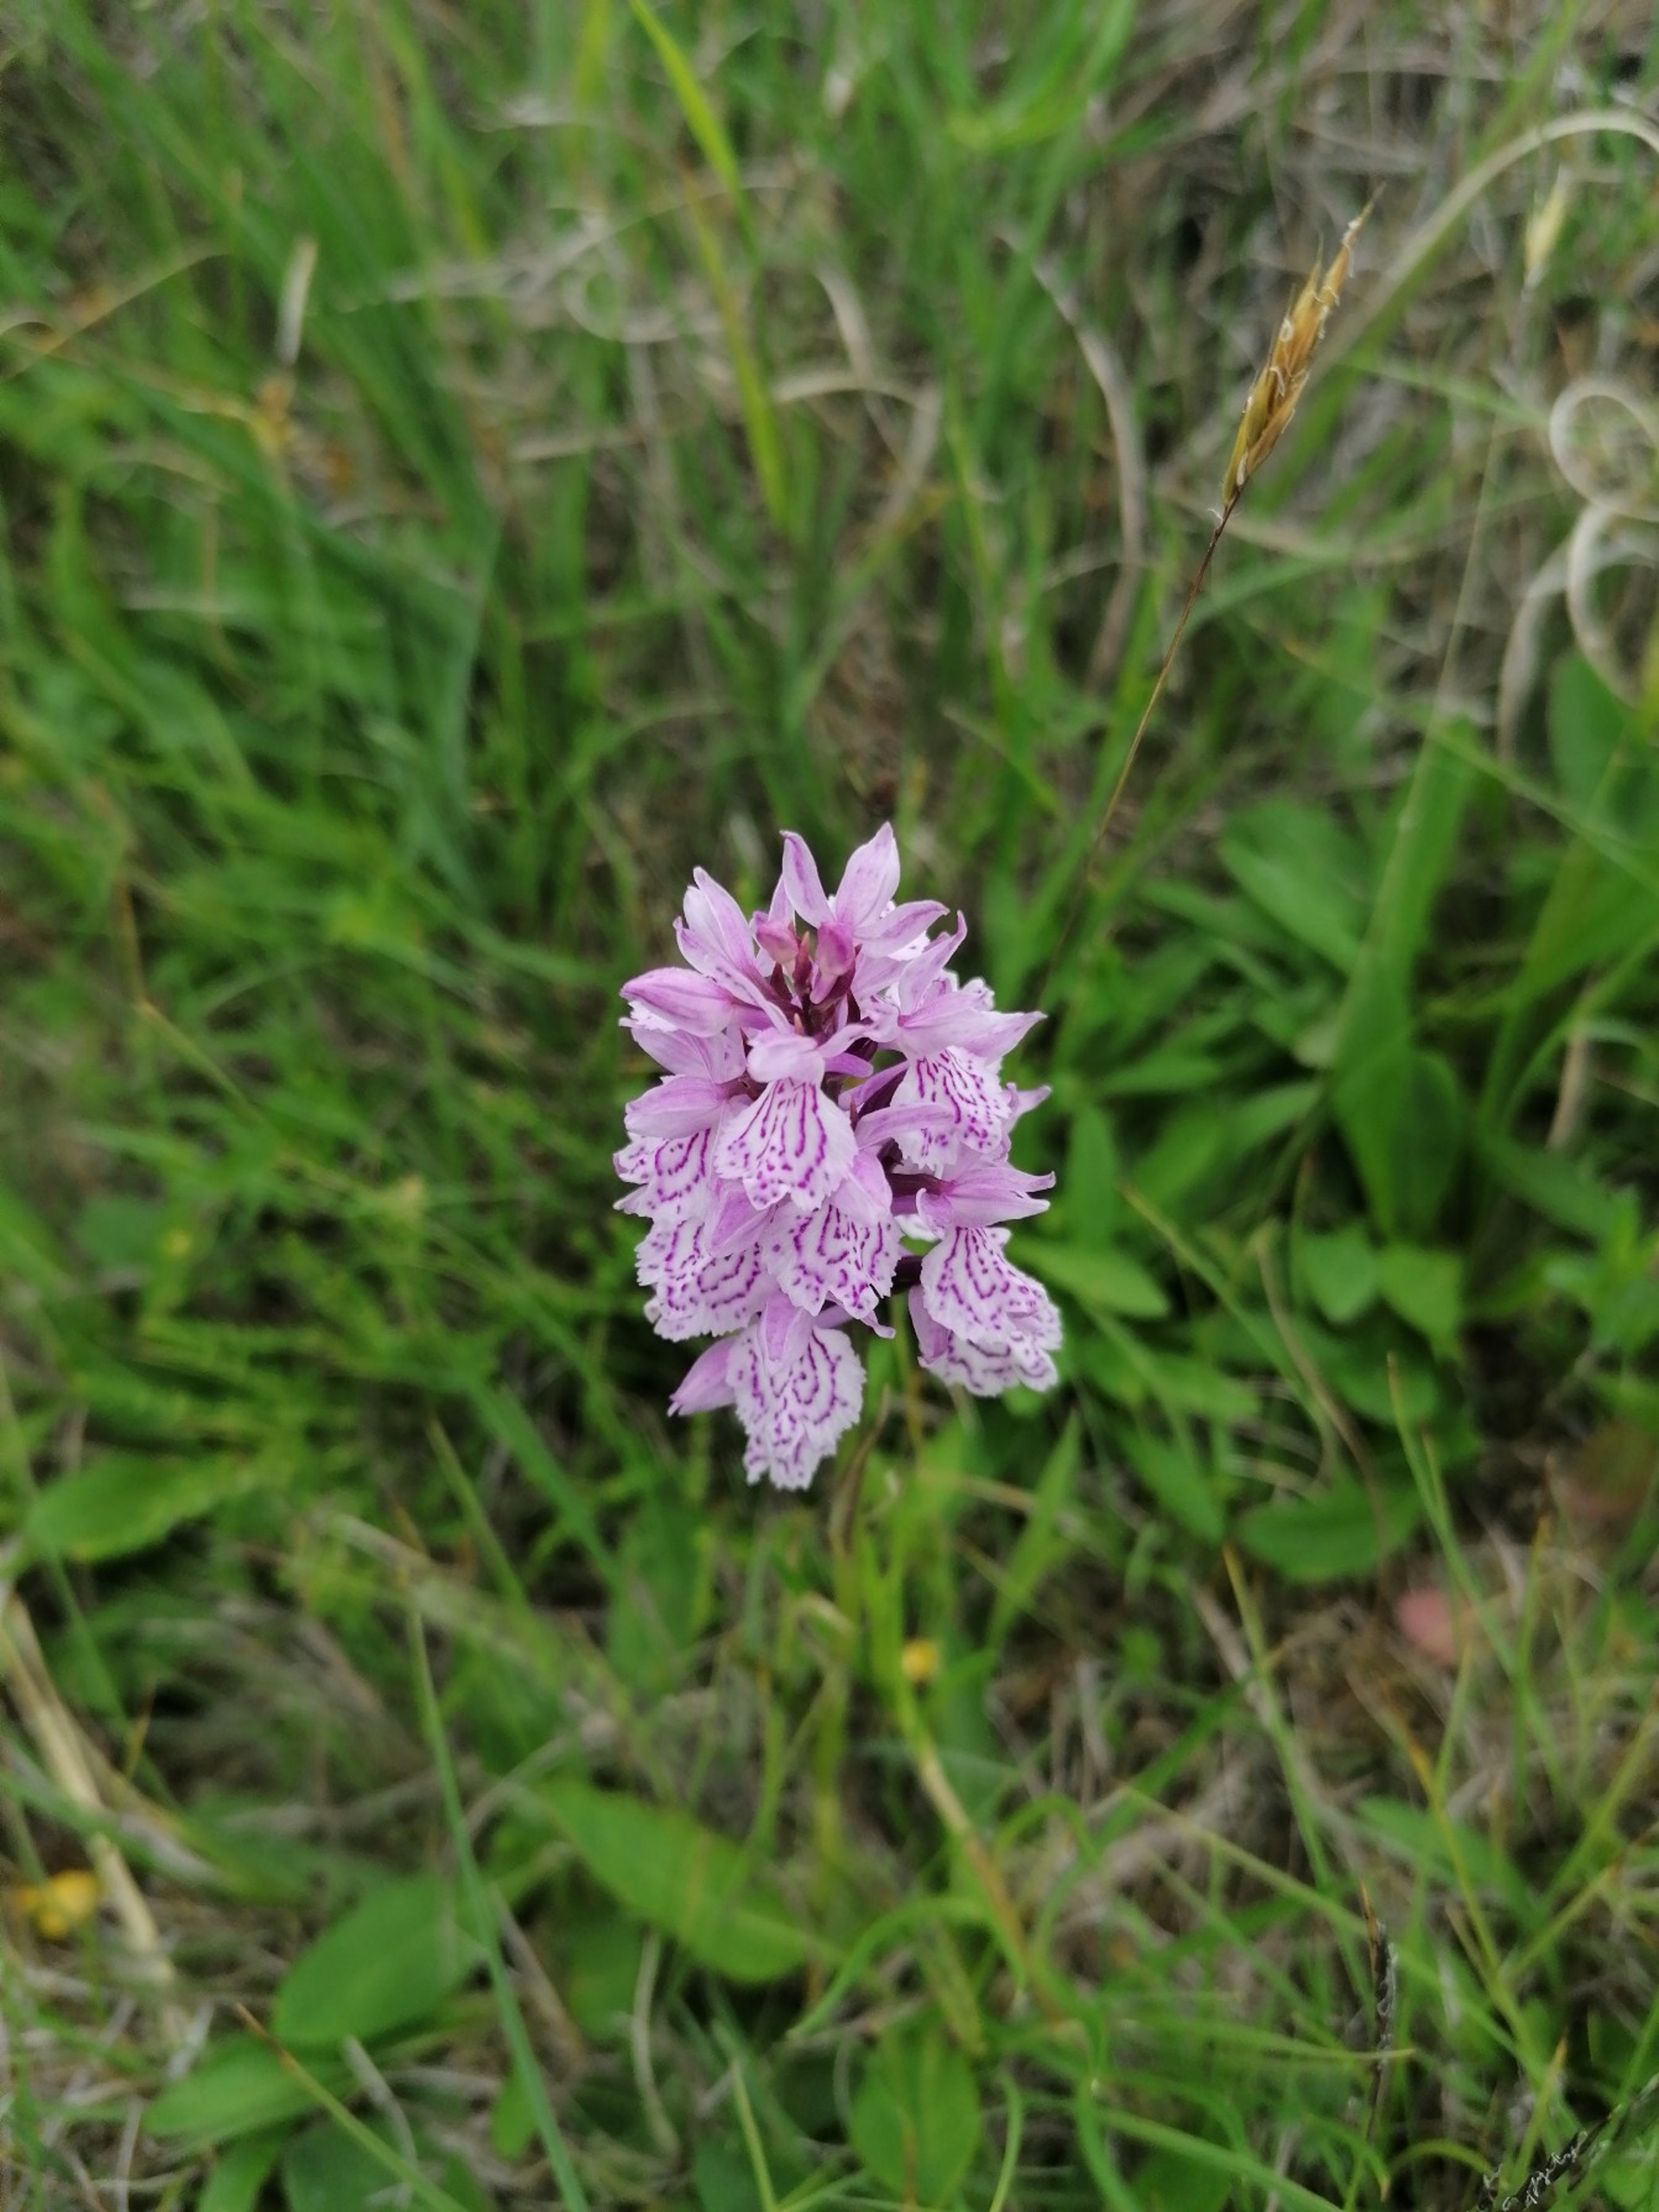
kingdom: Plantae
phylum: Tracheophyta
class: Liliopsida
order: Asparagales
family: Orchidaceae
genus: Dactylorhiza
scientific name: Dactylorhiza maculata
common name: Plettet gøgeurt
